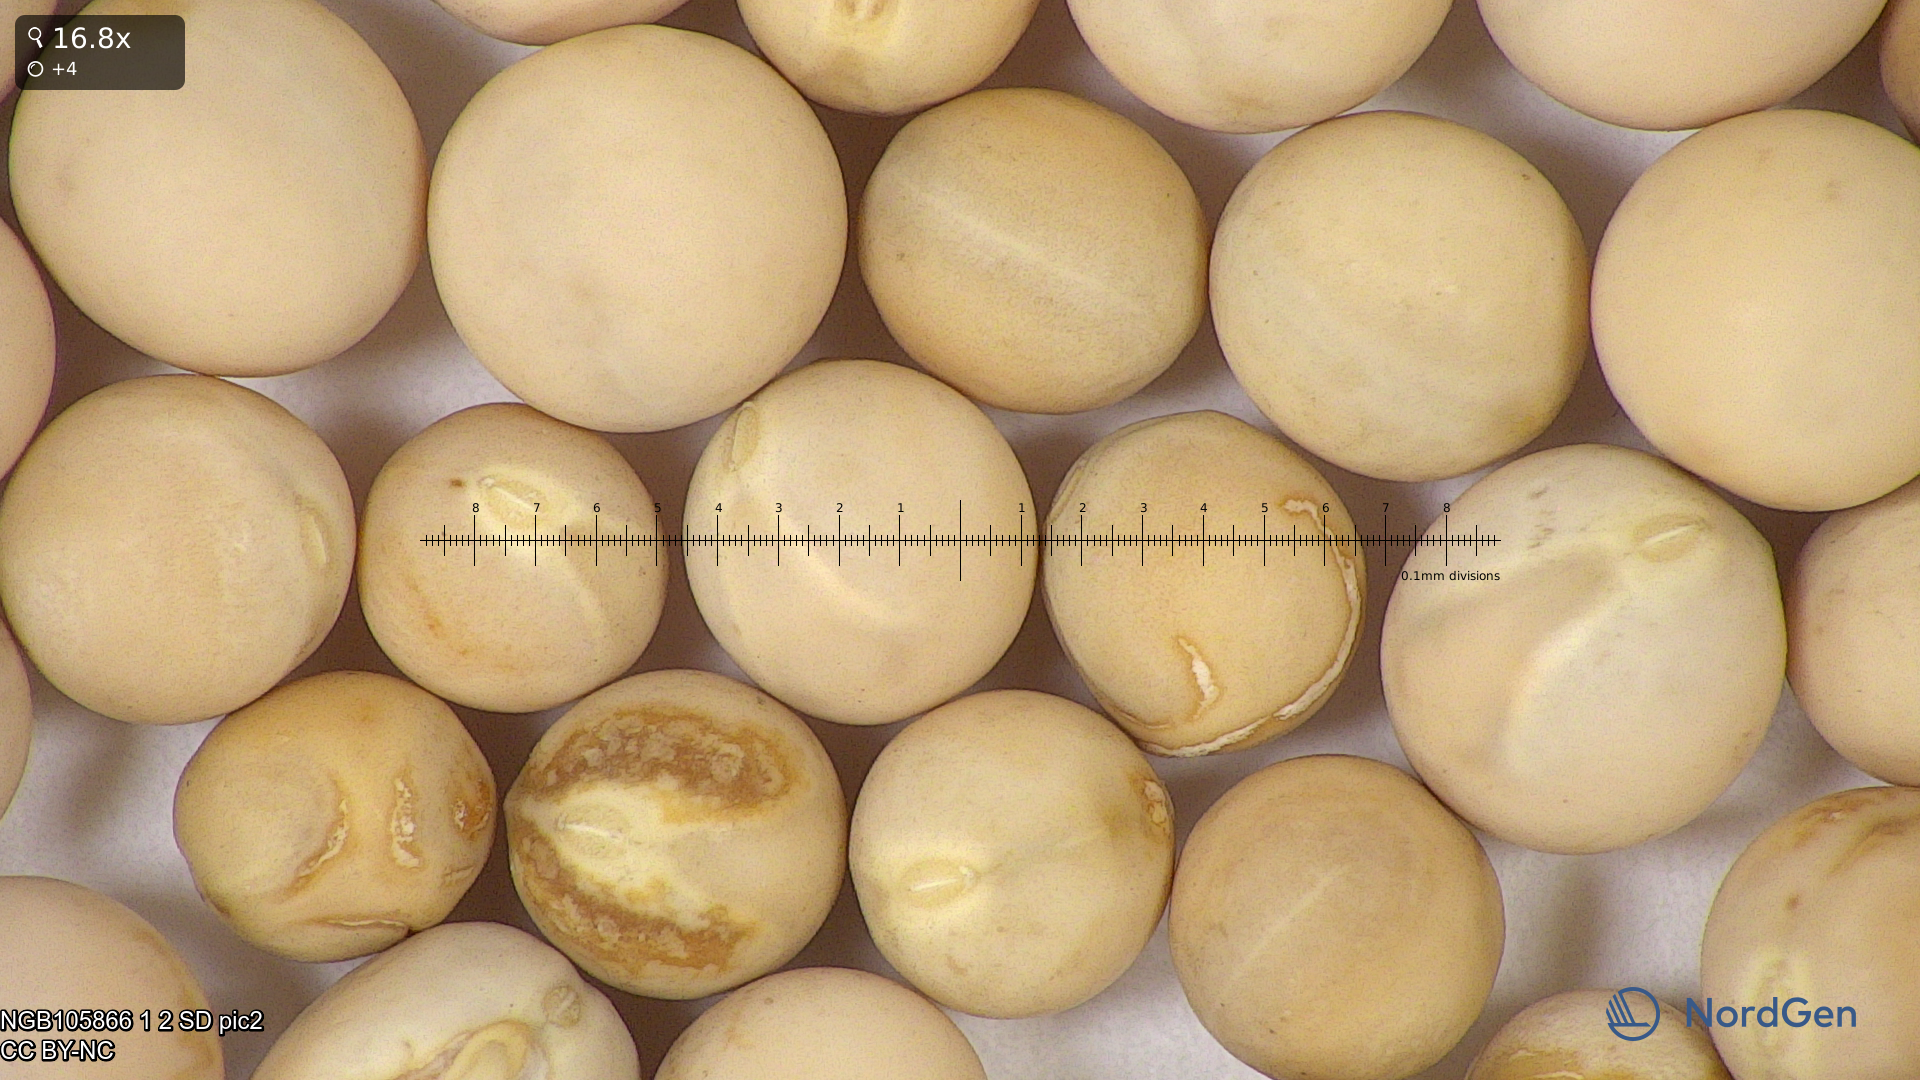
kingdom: Plantae
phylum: Tracheophyta
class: Magnoliopsida
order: Fabales
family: Fabaceae
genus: Lathyrus
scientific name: Lathyrus oleraceus
